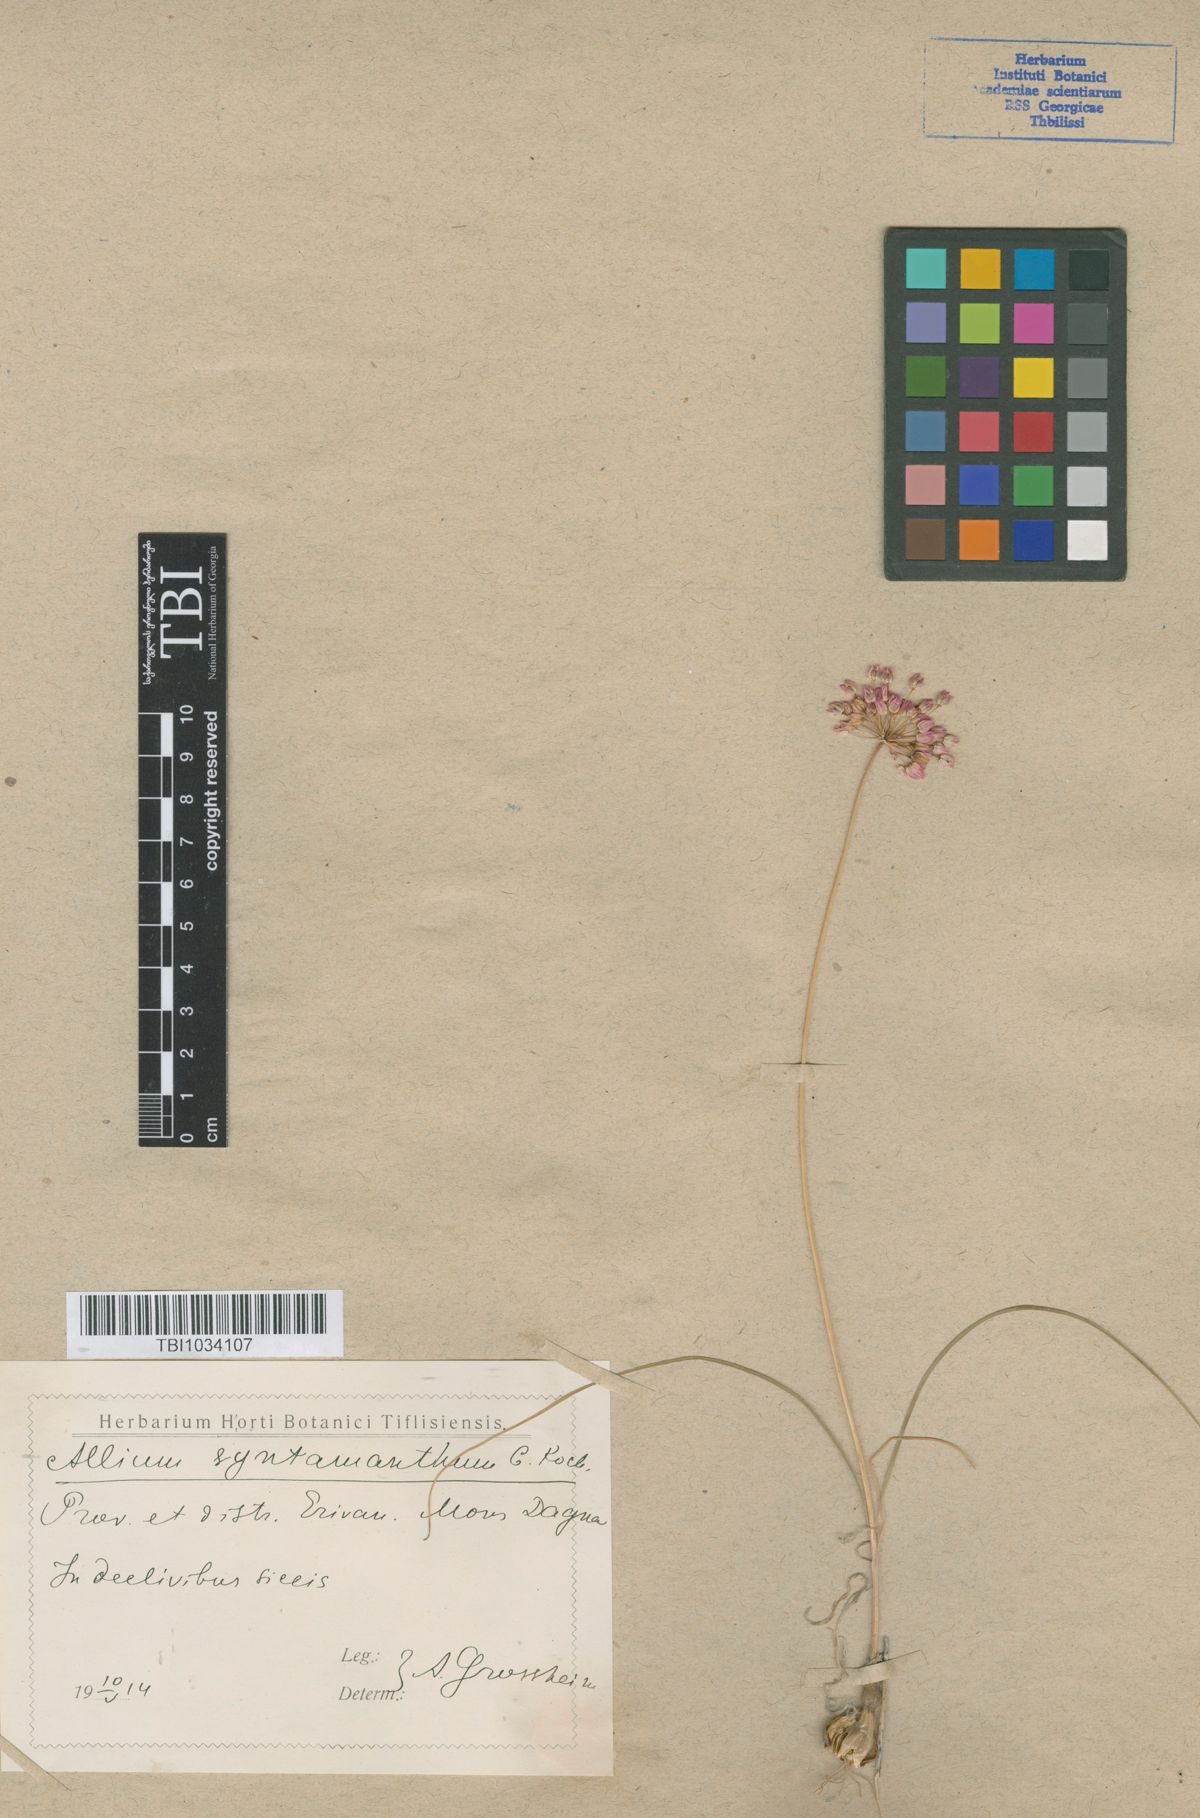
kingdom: Plantae
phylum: Tracheophyta
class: Liliopsida
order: Asparagales
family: Amaryllidaceae
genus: Allium
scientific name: Allium rubellum
